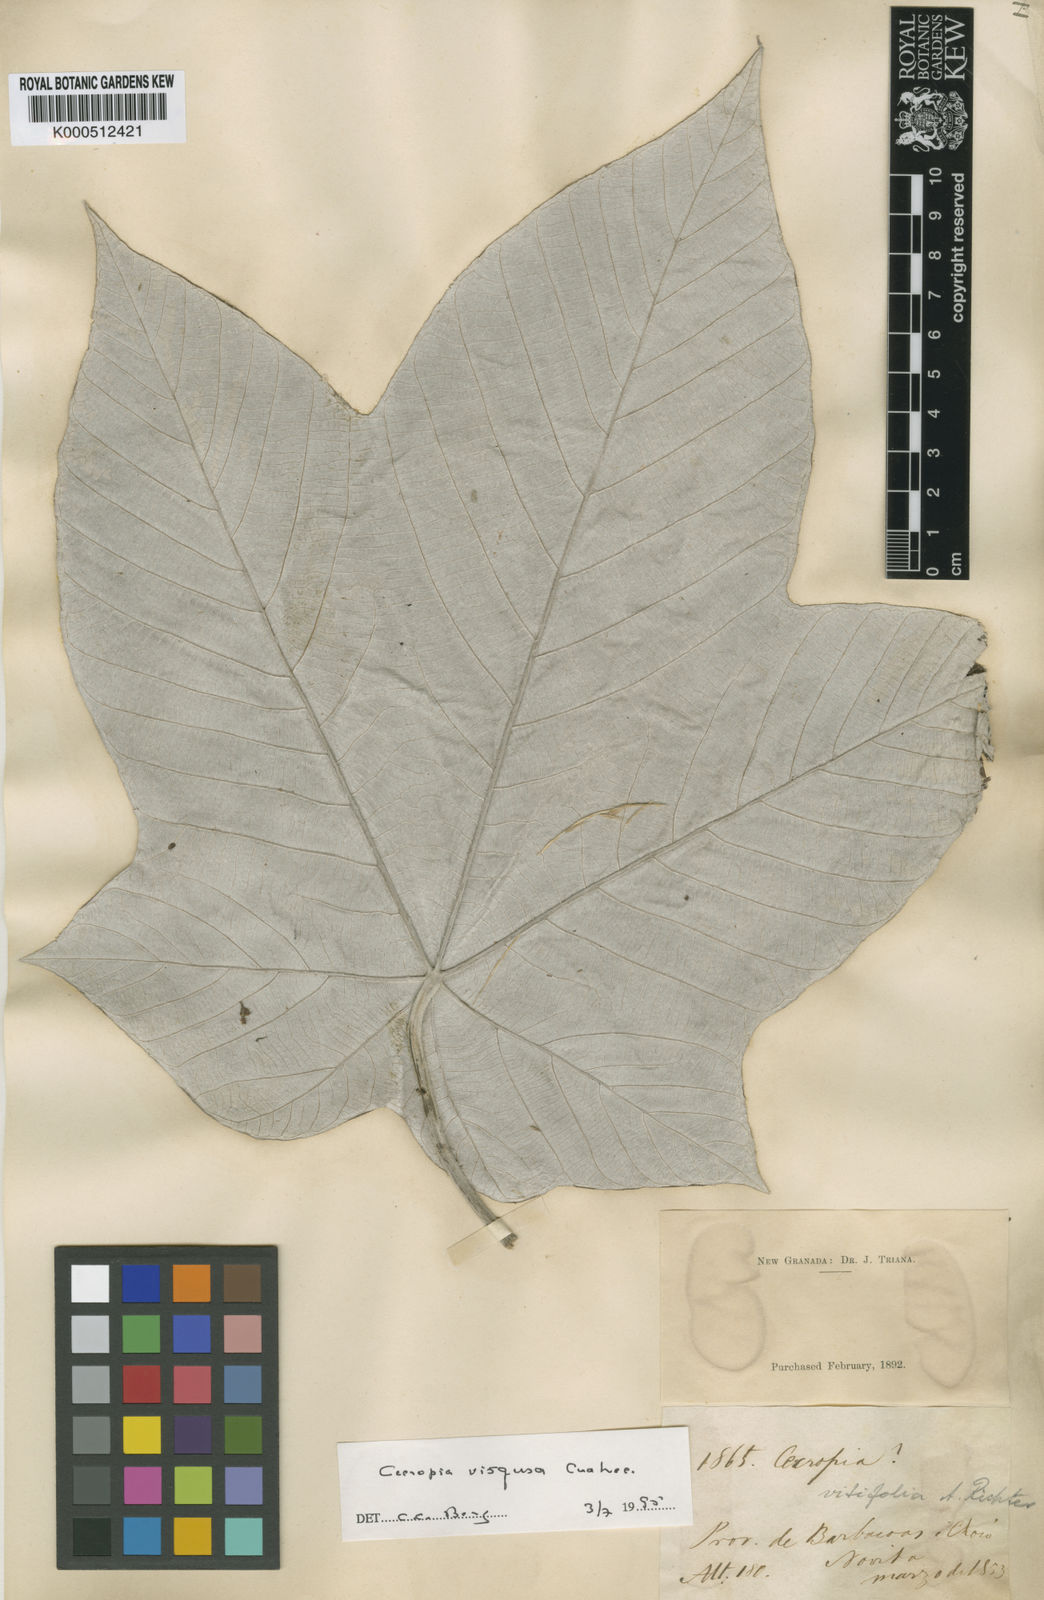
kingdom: Plantae
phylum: Tracheophyta
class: Magnoliopsida
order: Rosales
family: Urticaceae
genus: Cecropia
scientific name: Cecropia virgusa
